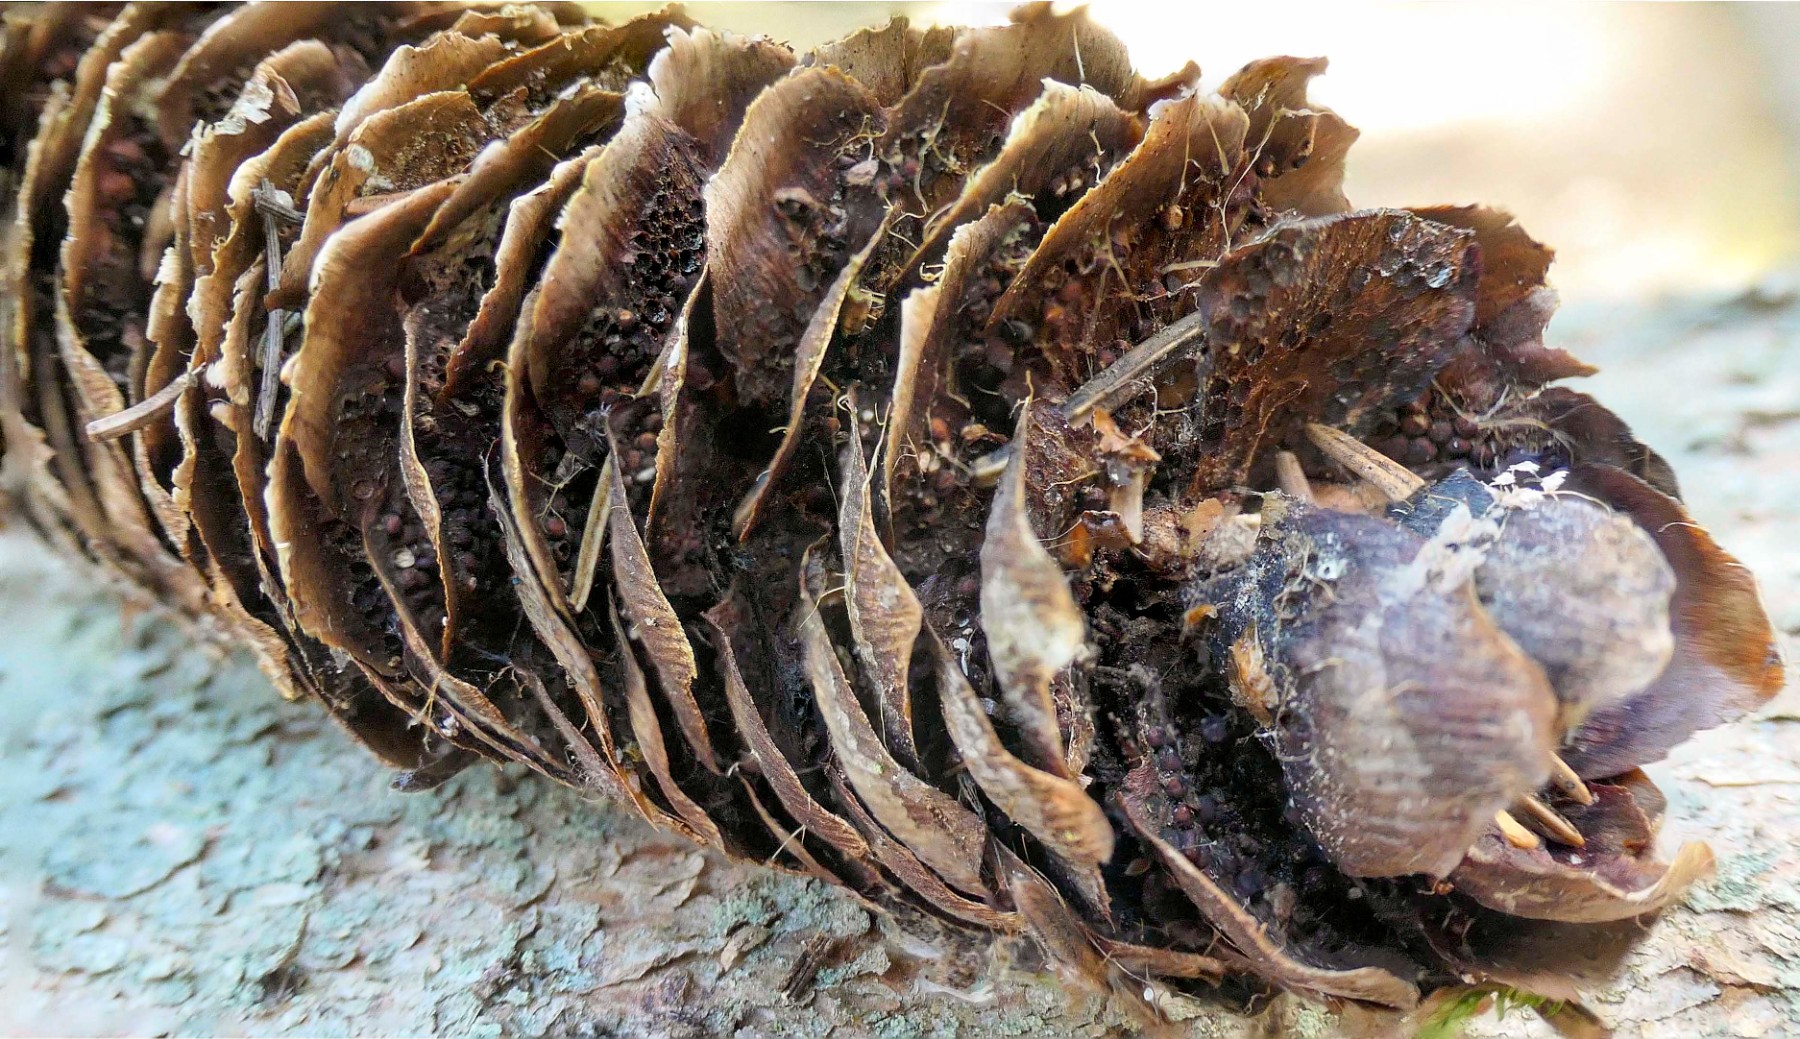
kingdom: Fungi
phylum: Basidiomycota
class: Pucciniomycetes
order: Pucciniales
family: Pucciniastraceae
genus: Thekopsora
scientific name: Thekopsora areolata
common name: grankogle-nålerust
